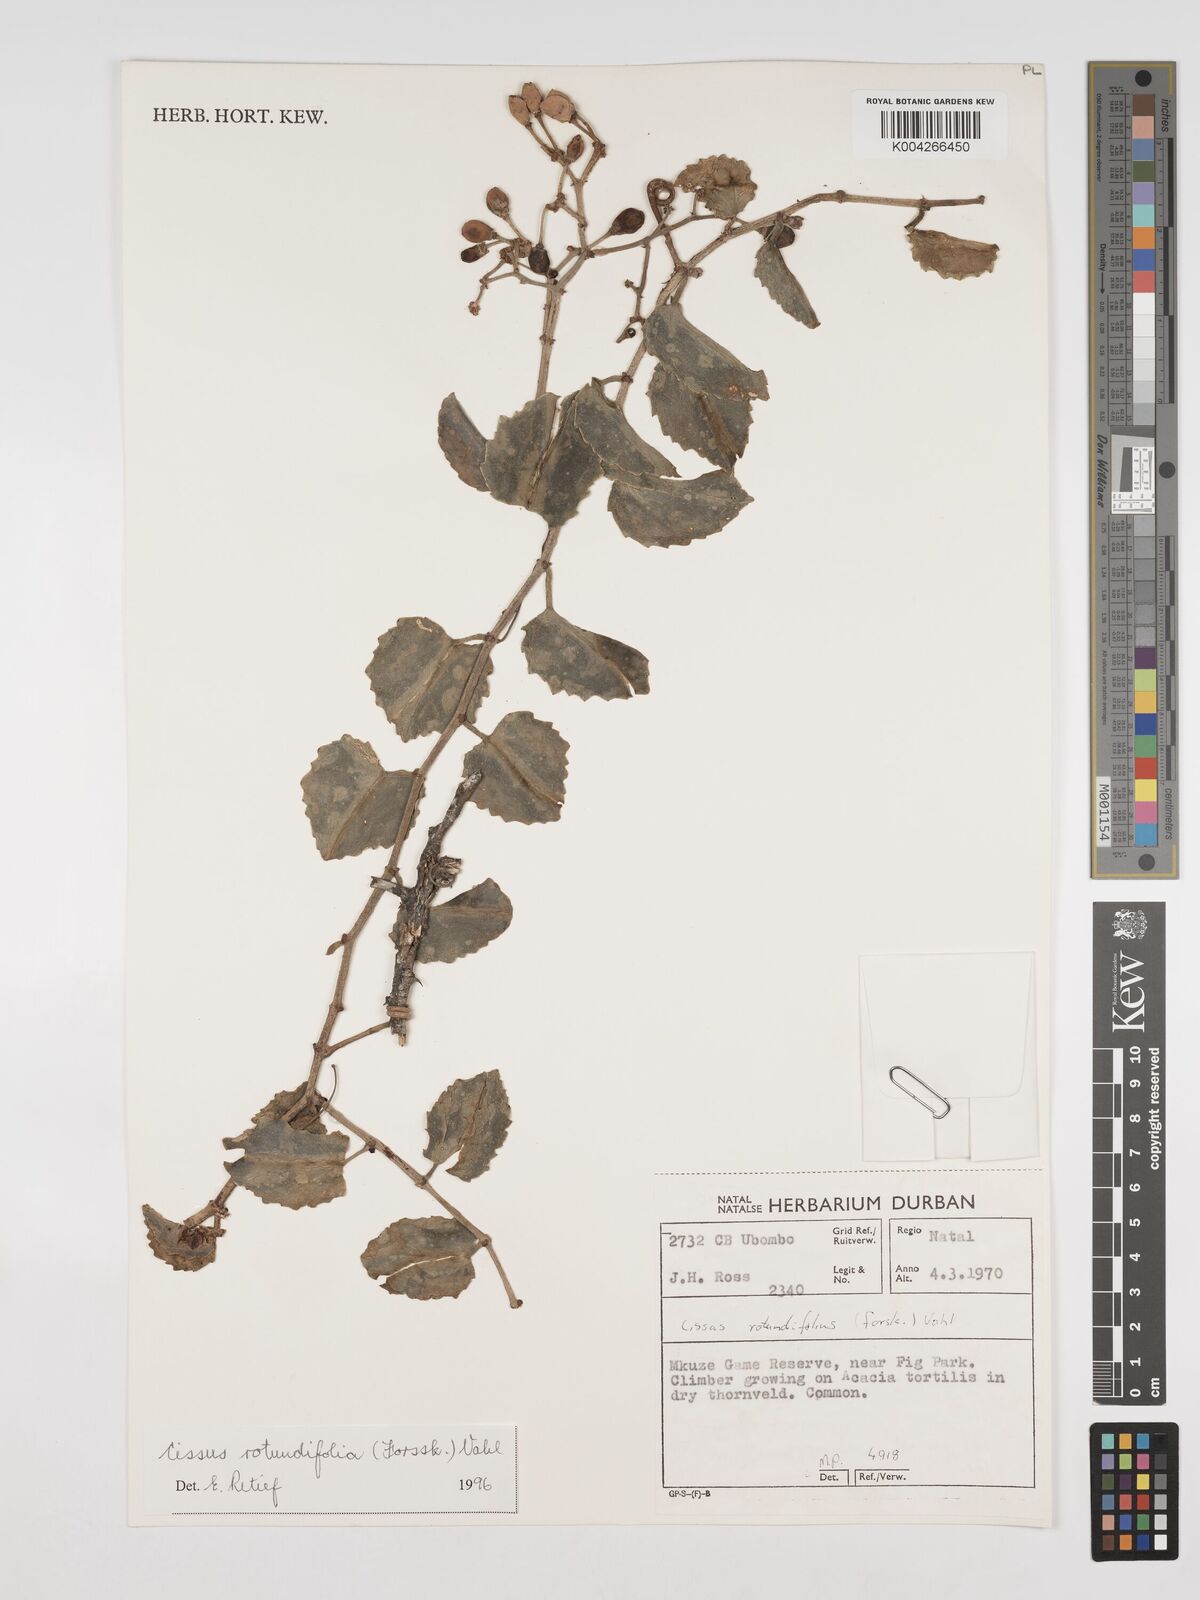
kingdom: Plantae
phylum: Tracheophyta
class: Magnoliopsida
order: Vitales
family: Vitaceae
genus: Cissus
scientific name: Cissus
